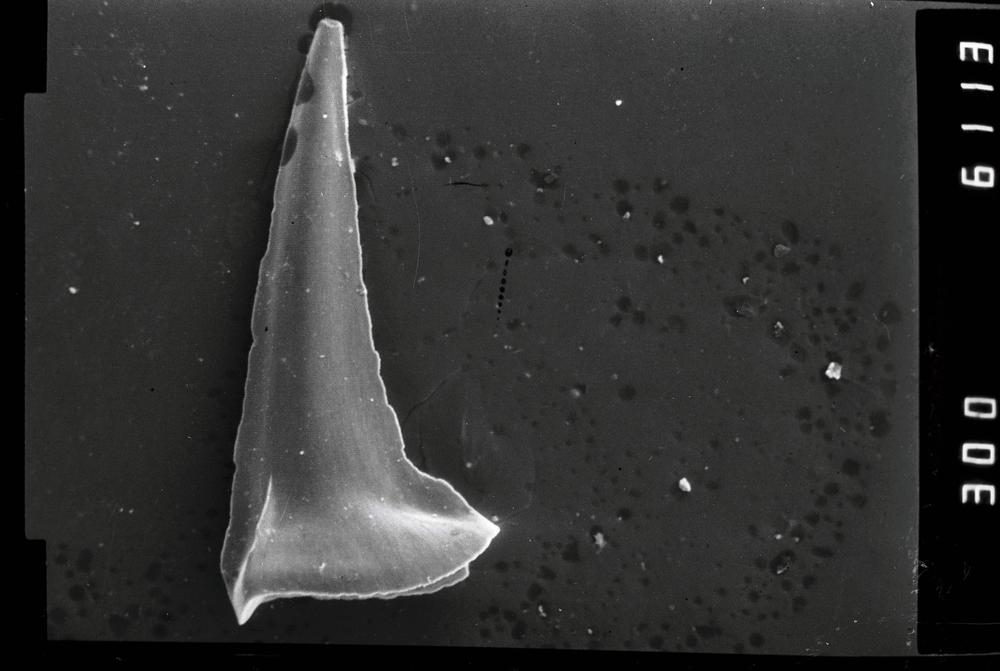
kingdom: Animalia
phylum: Annelida
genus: Paltodus
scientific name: Paltodus
